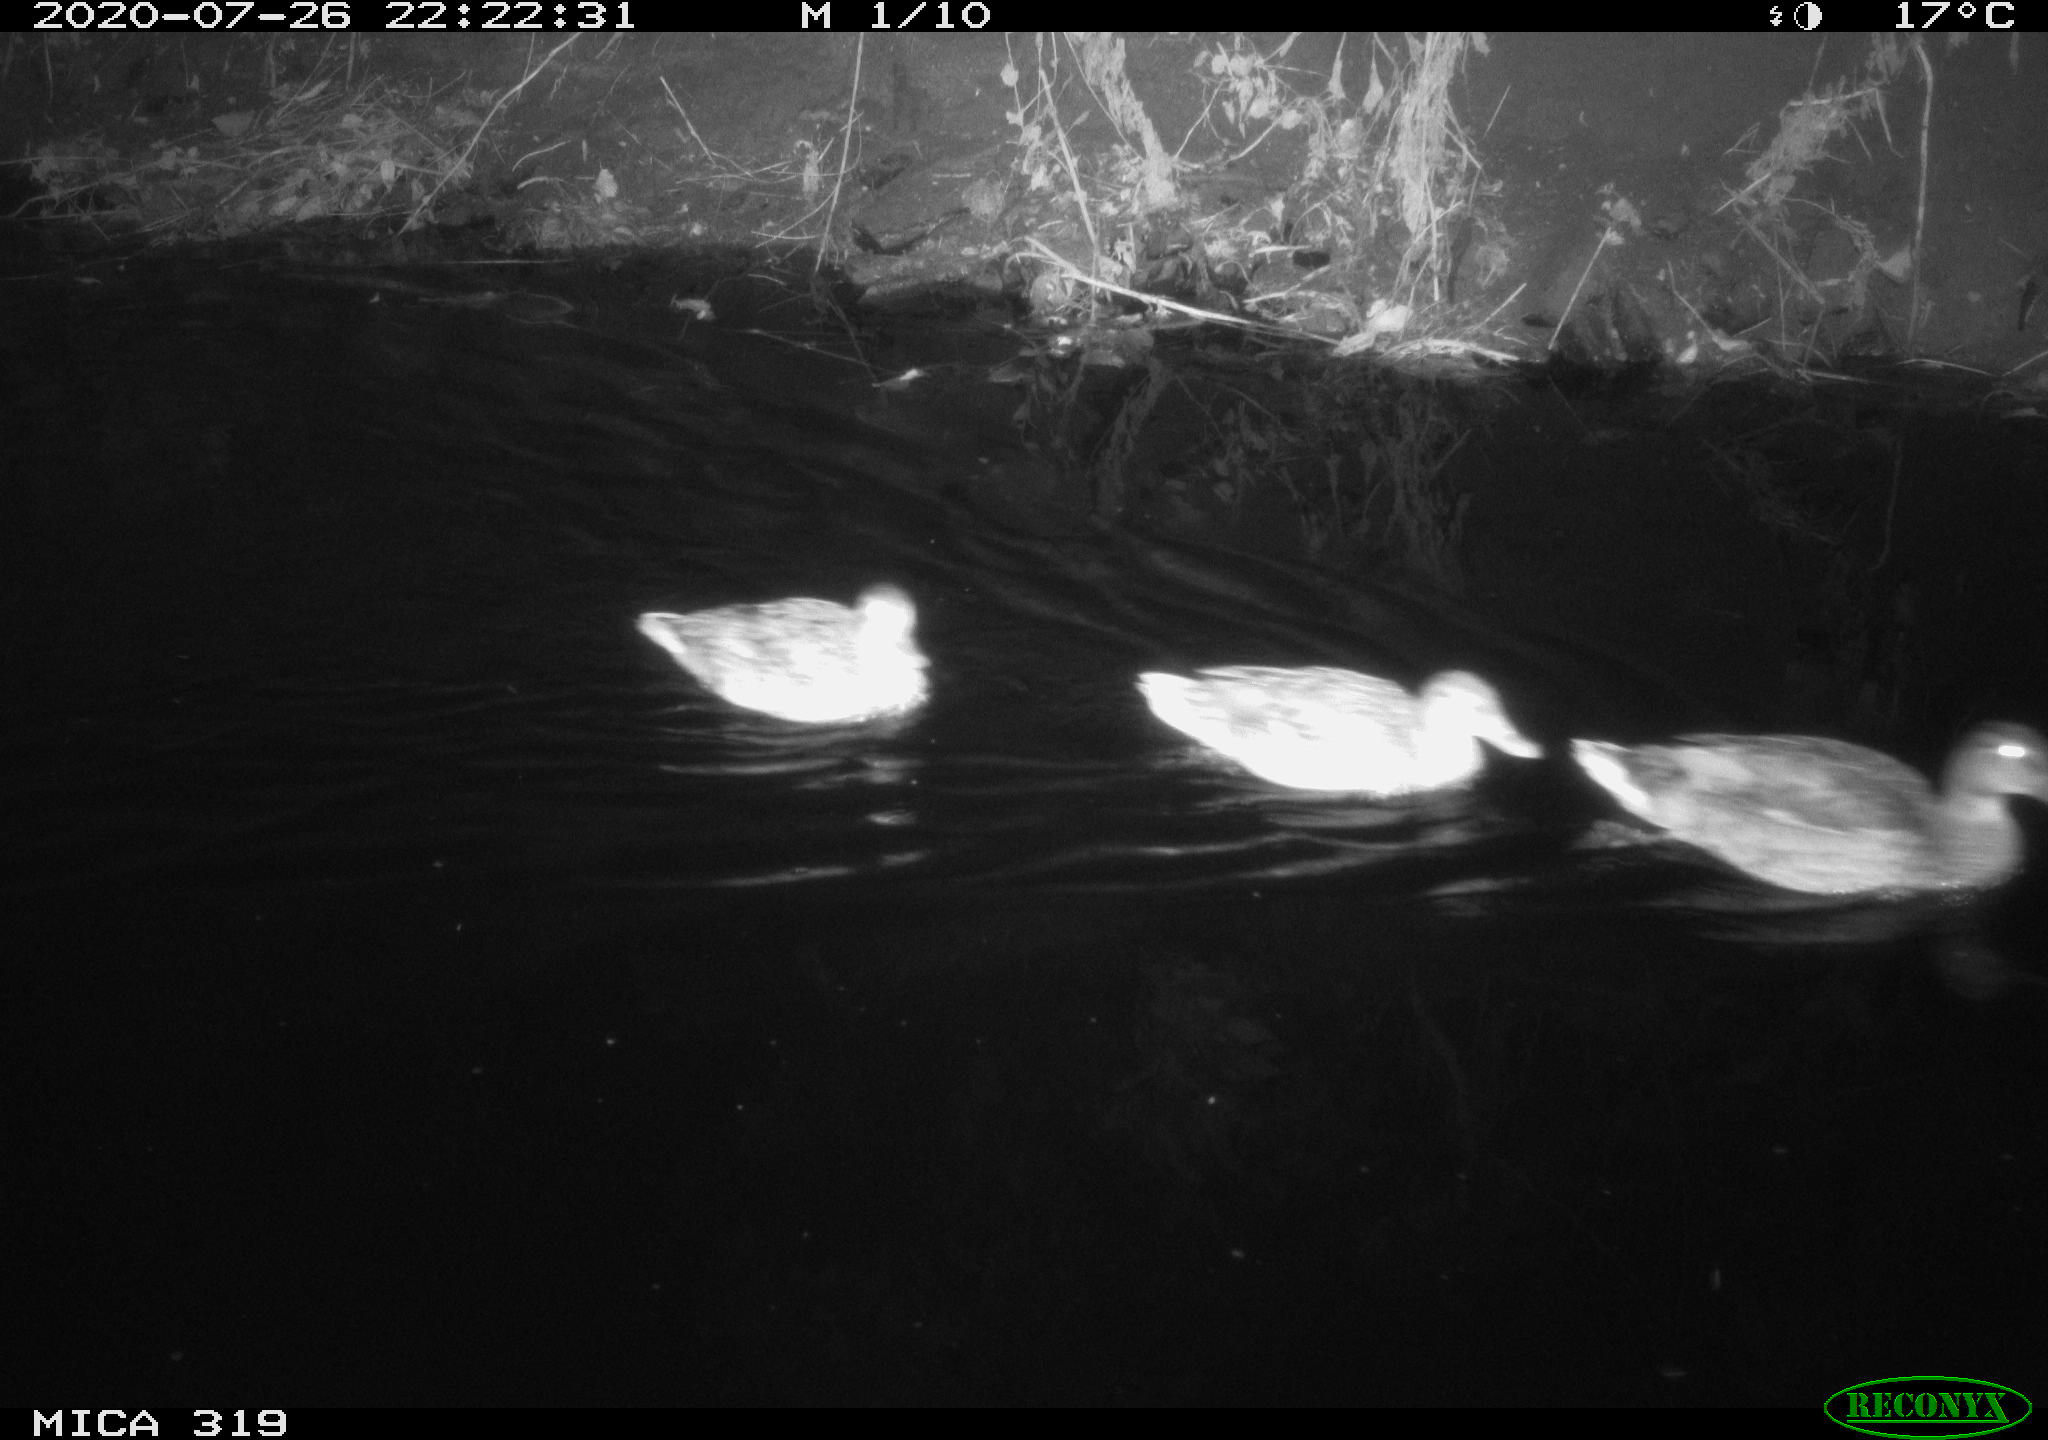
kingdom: Animalia
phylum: Chordata
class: Aves
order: Anseriformes
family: Anatidae
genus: Anas
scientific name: Anas platyrhynchos
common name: Mallard
